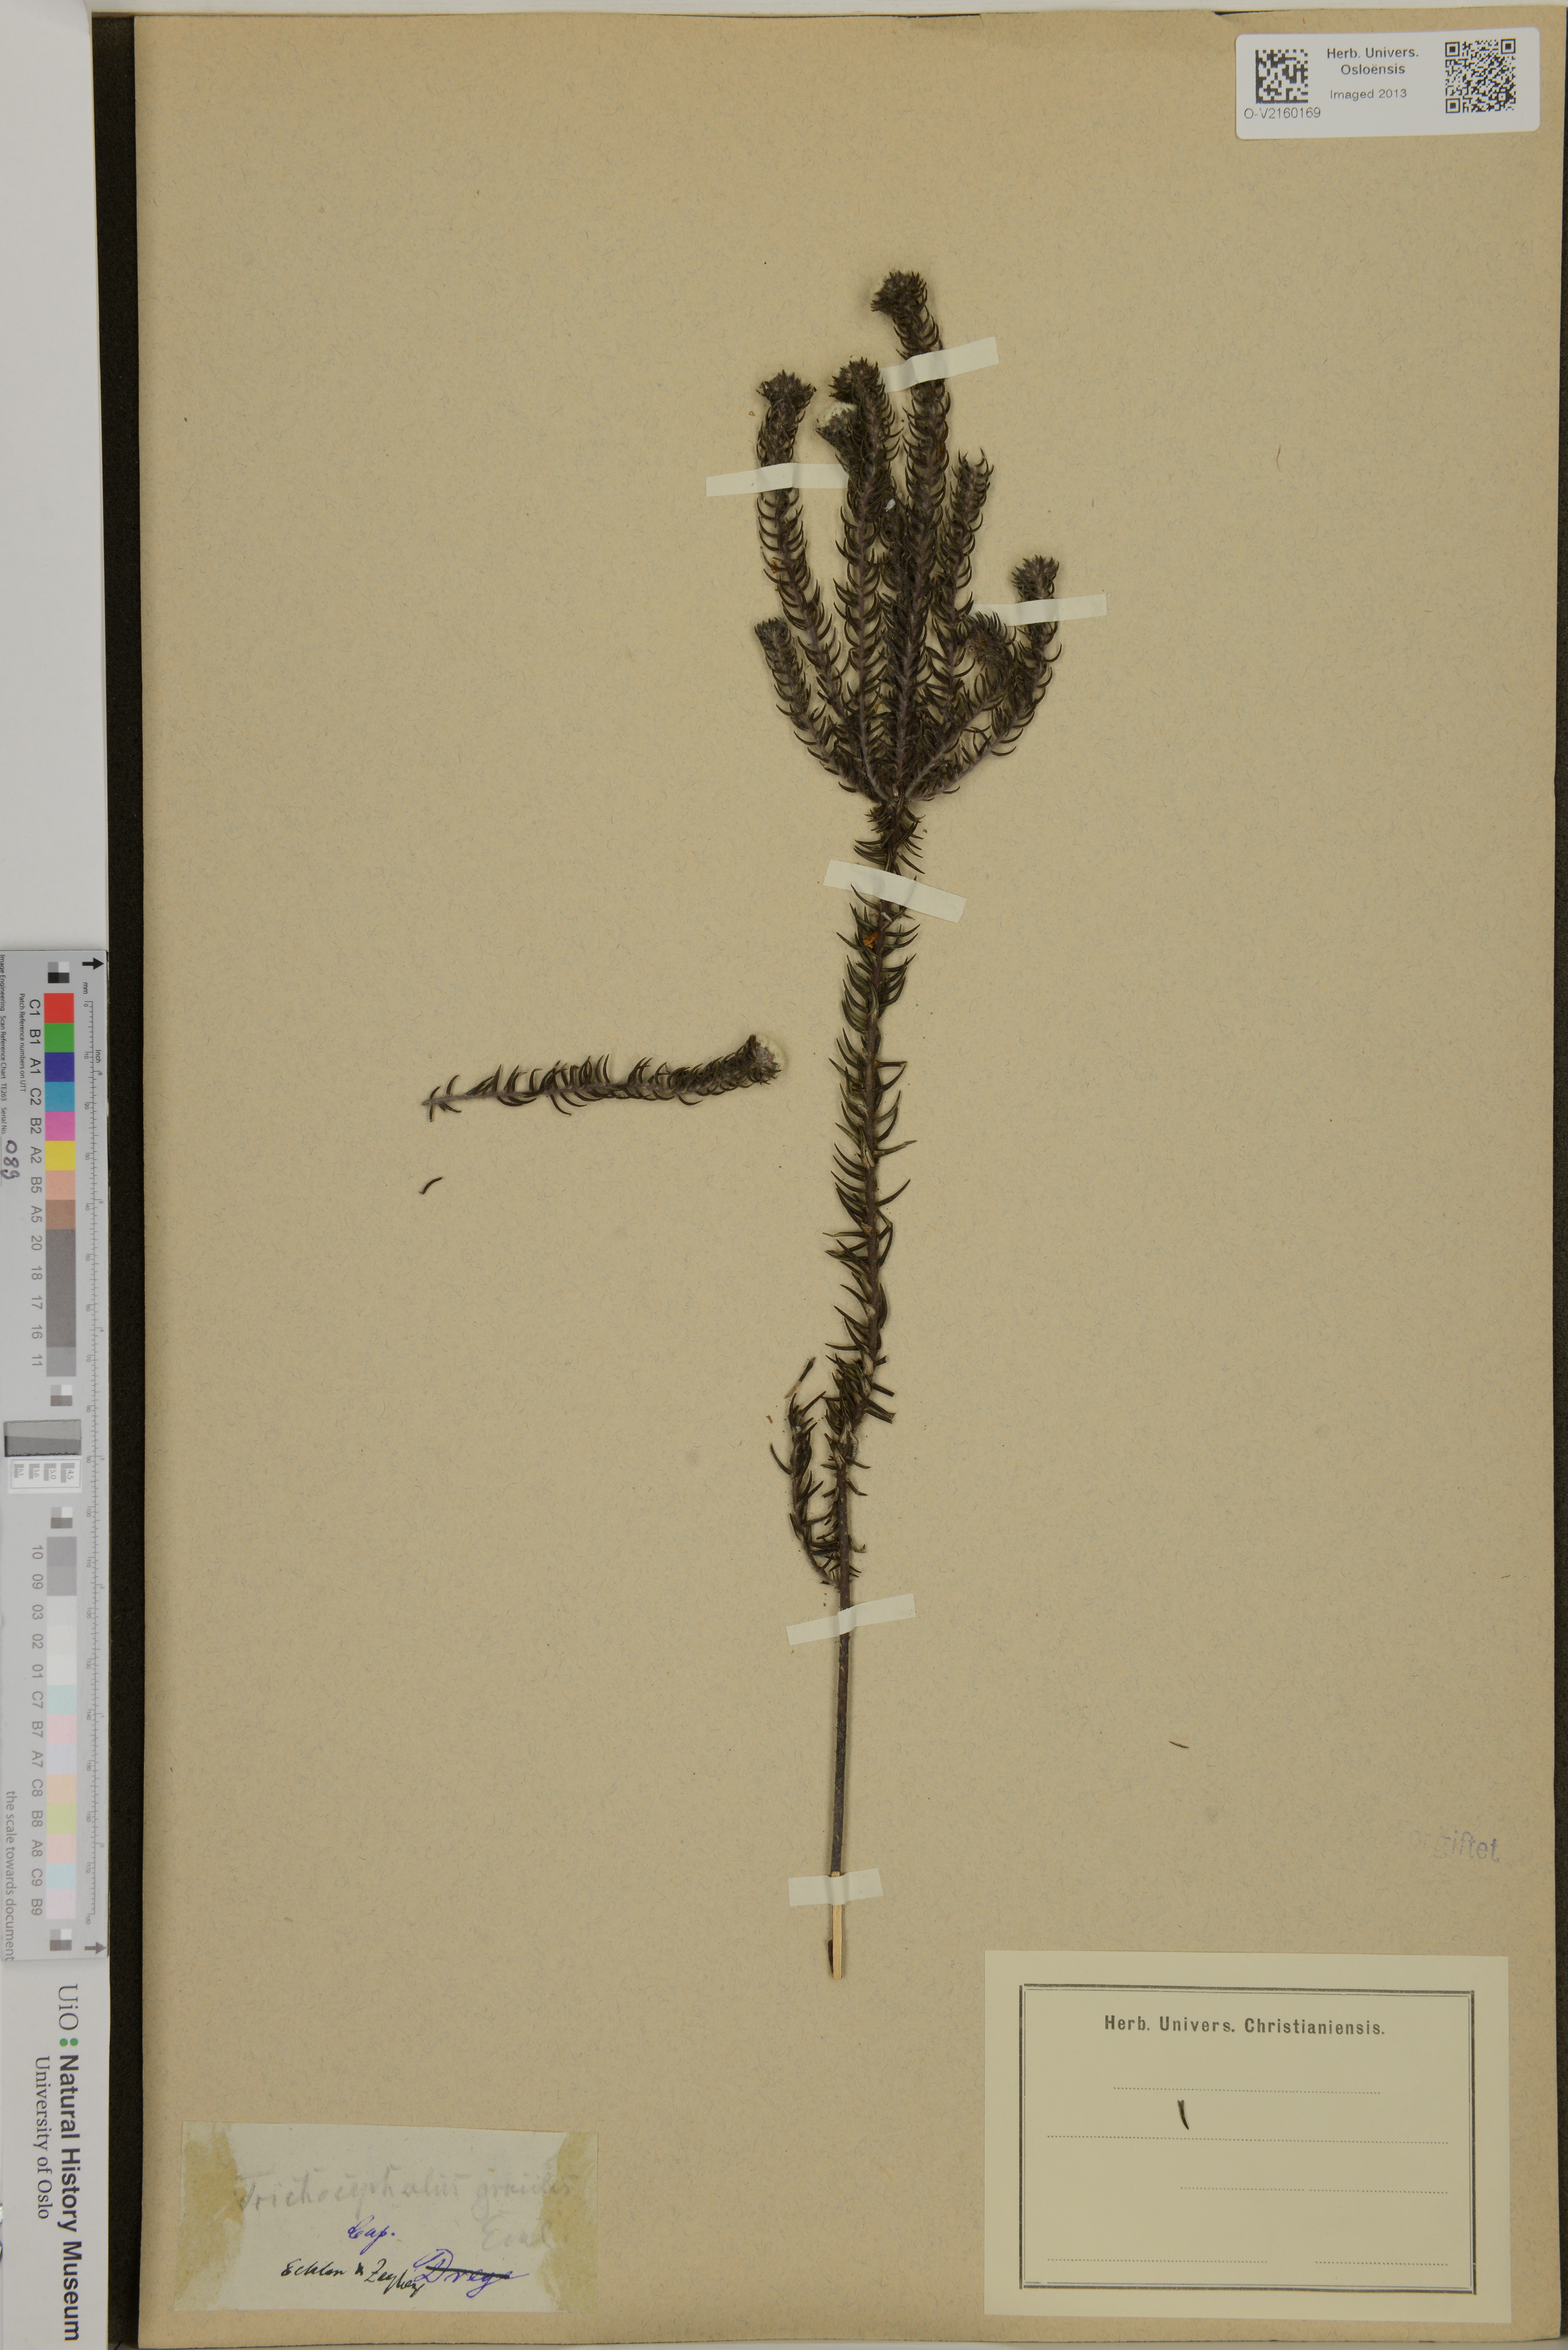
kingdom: Plantae
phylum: Tracheophyta
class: Magnoliopsida
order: Rosales
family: Rhamnaceae
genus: Phylica
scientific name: Phylica gracilis
